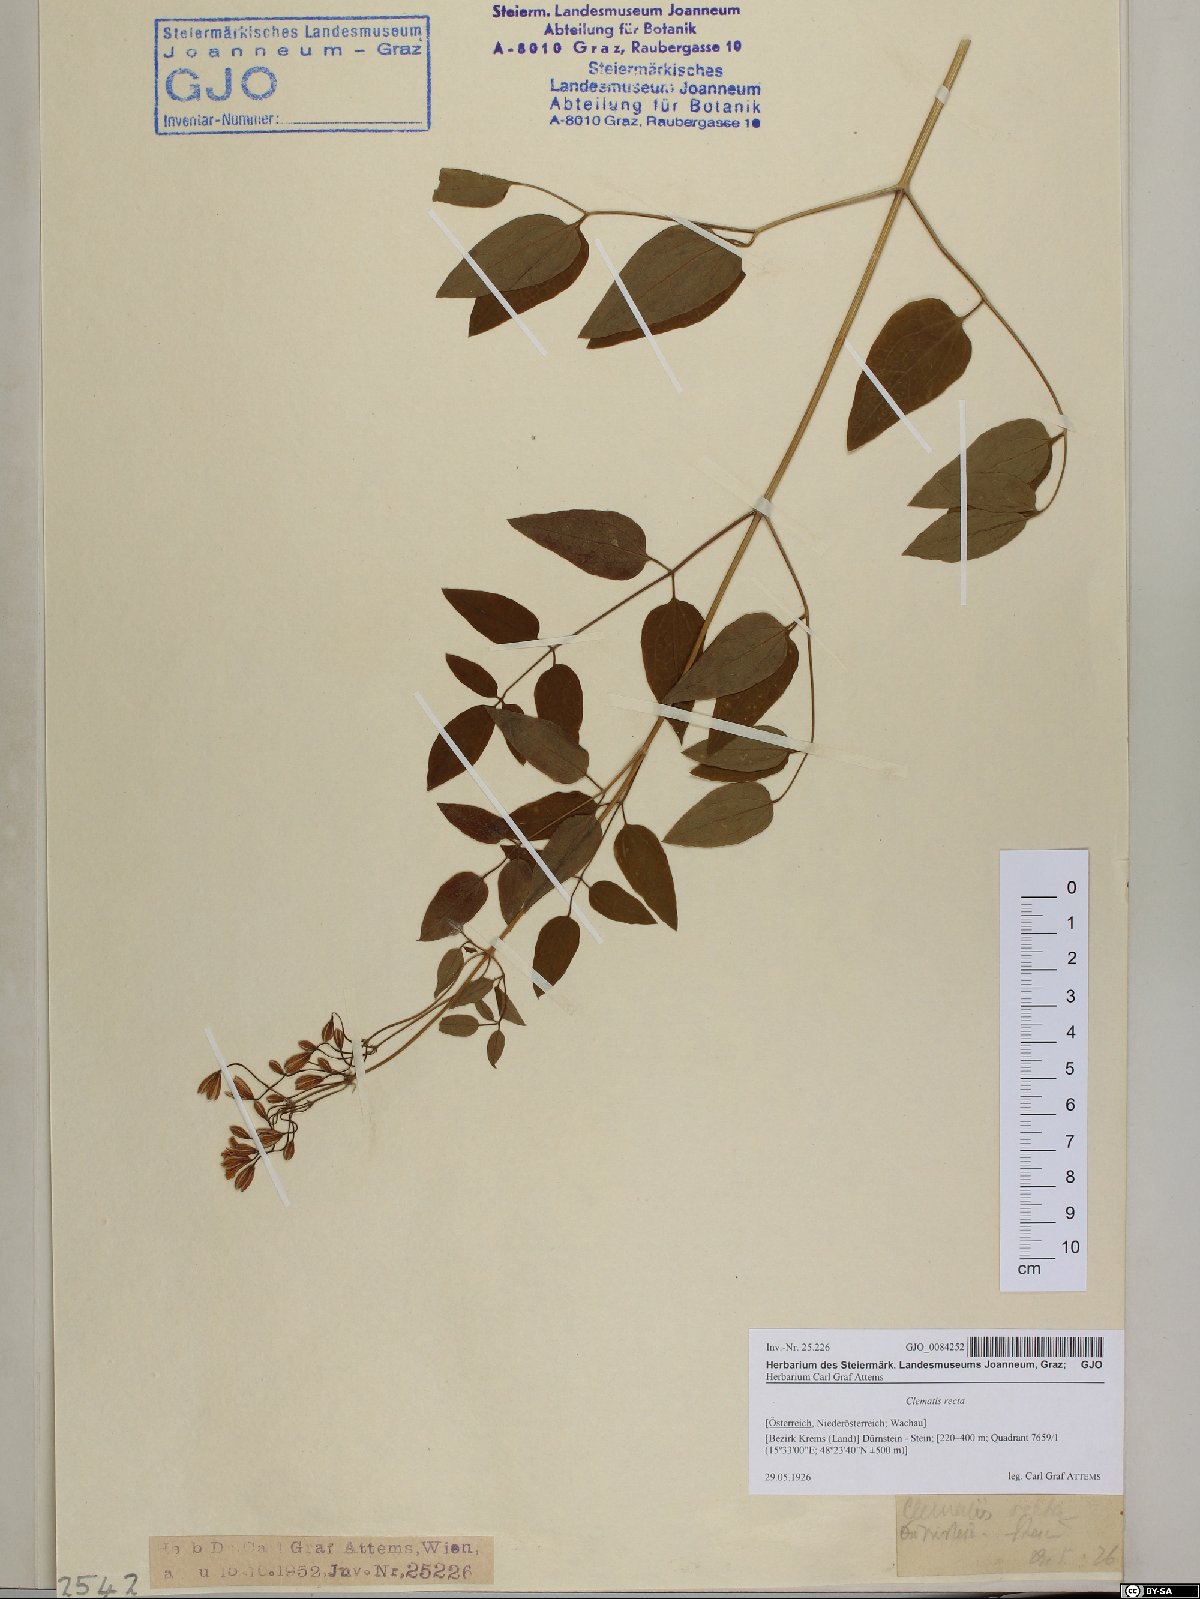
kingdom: Plantae
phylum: Tracheophyta
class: Magnoliopsida
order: Ranunculales
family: Ranunculaceae
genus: Clematis
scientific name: Clematis recta
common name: Ground clematis
